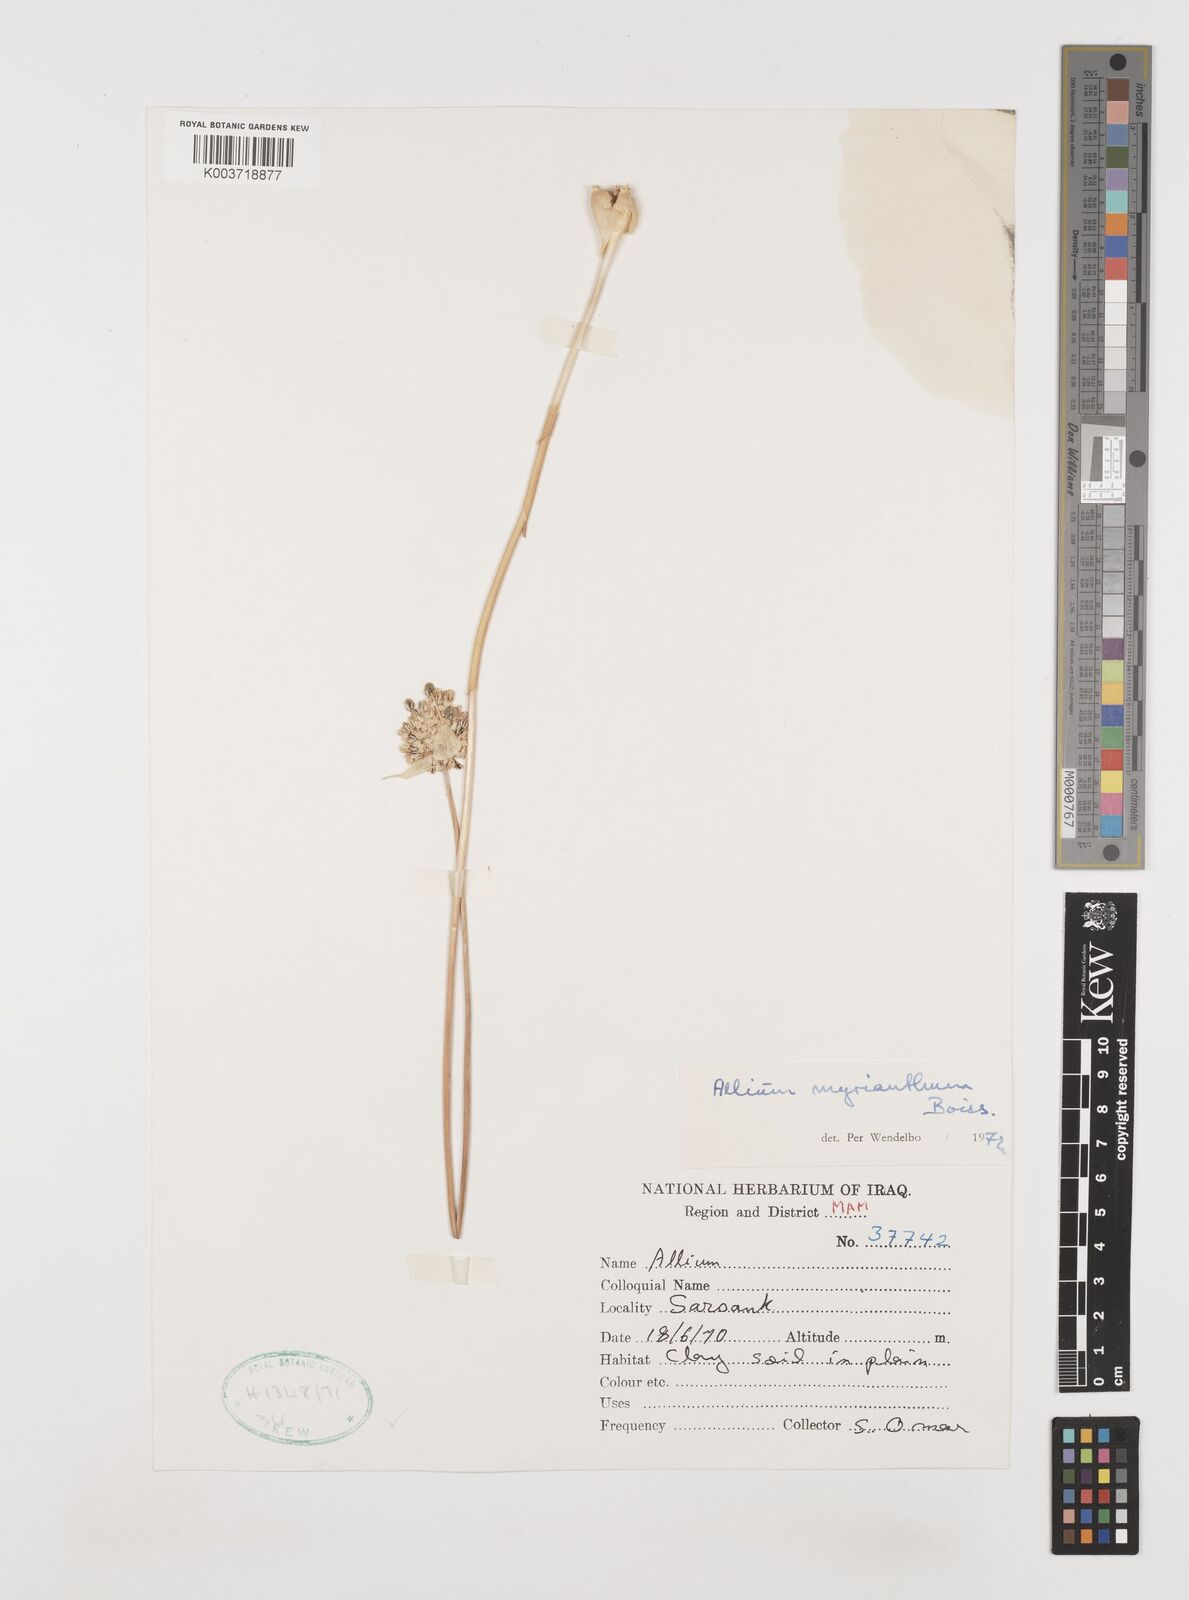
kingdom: Plantae
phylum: Tracheophyta
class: Liliopsida
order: Asparagales
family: Amaryllidaceae
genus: Allium
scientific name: Allium myrianthum
